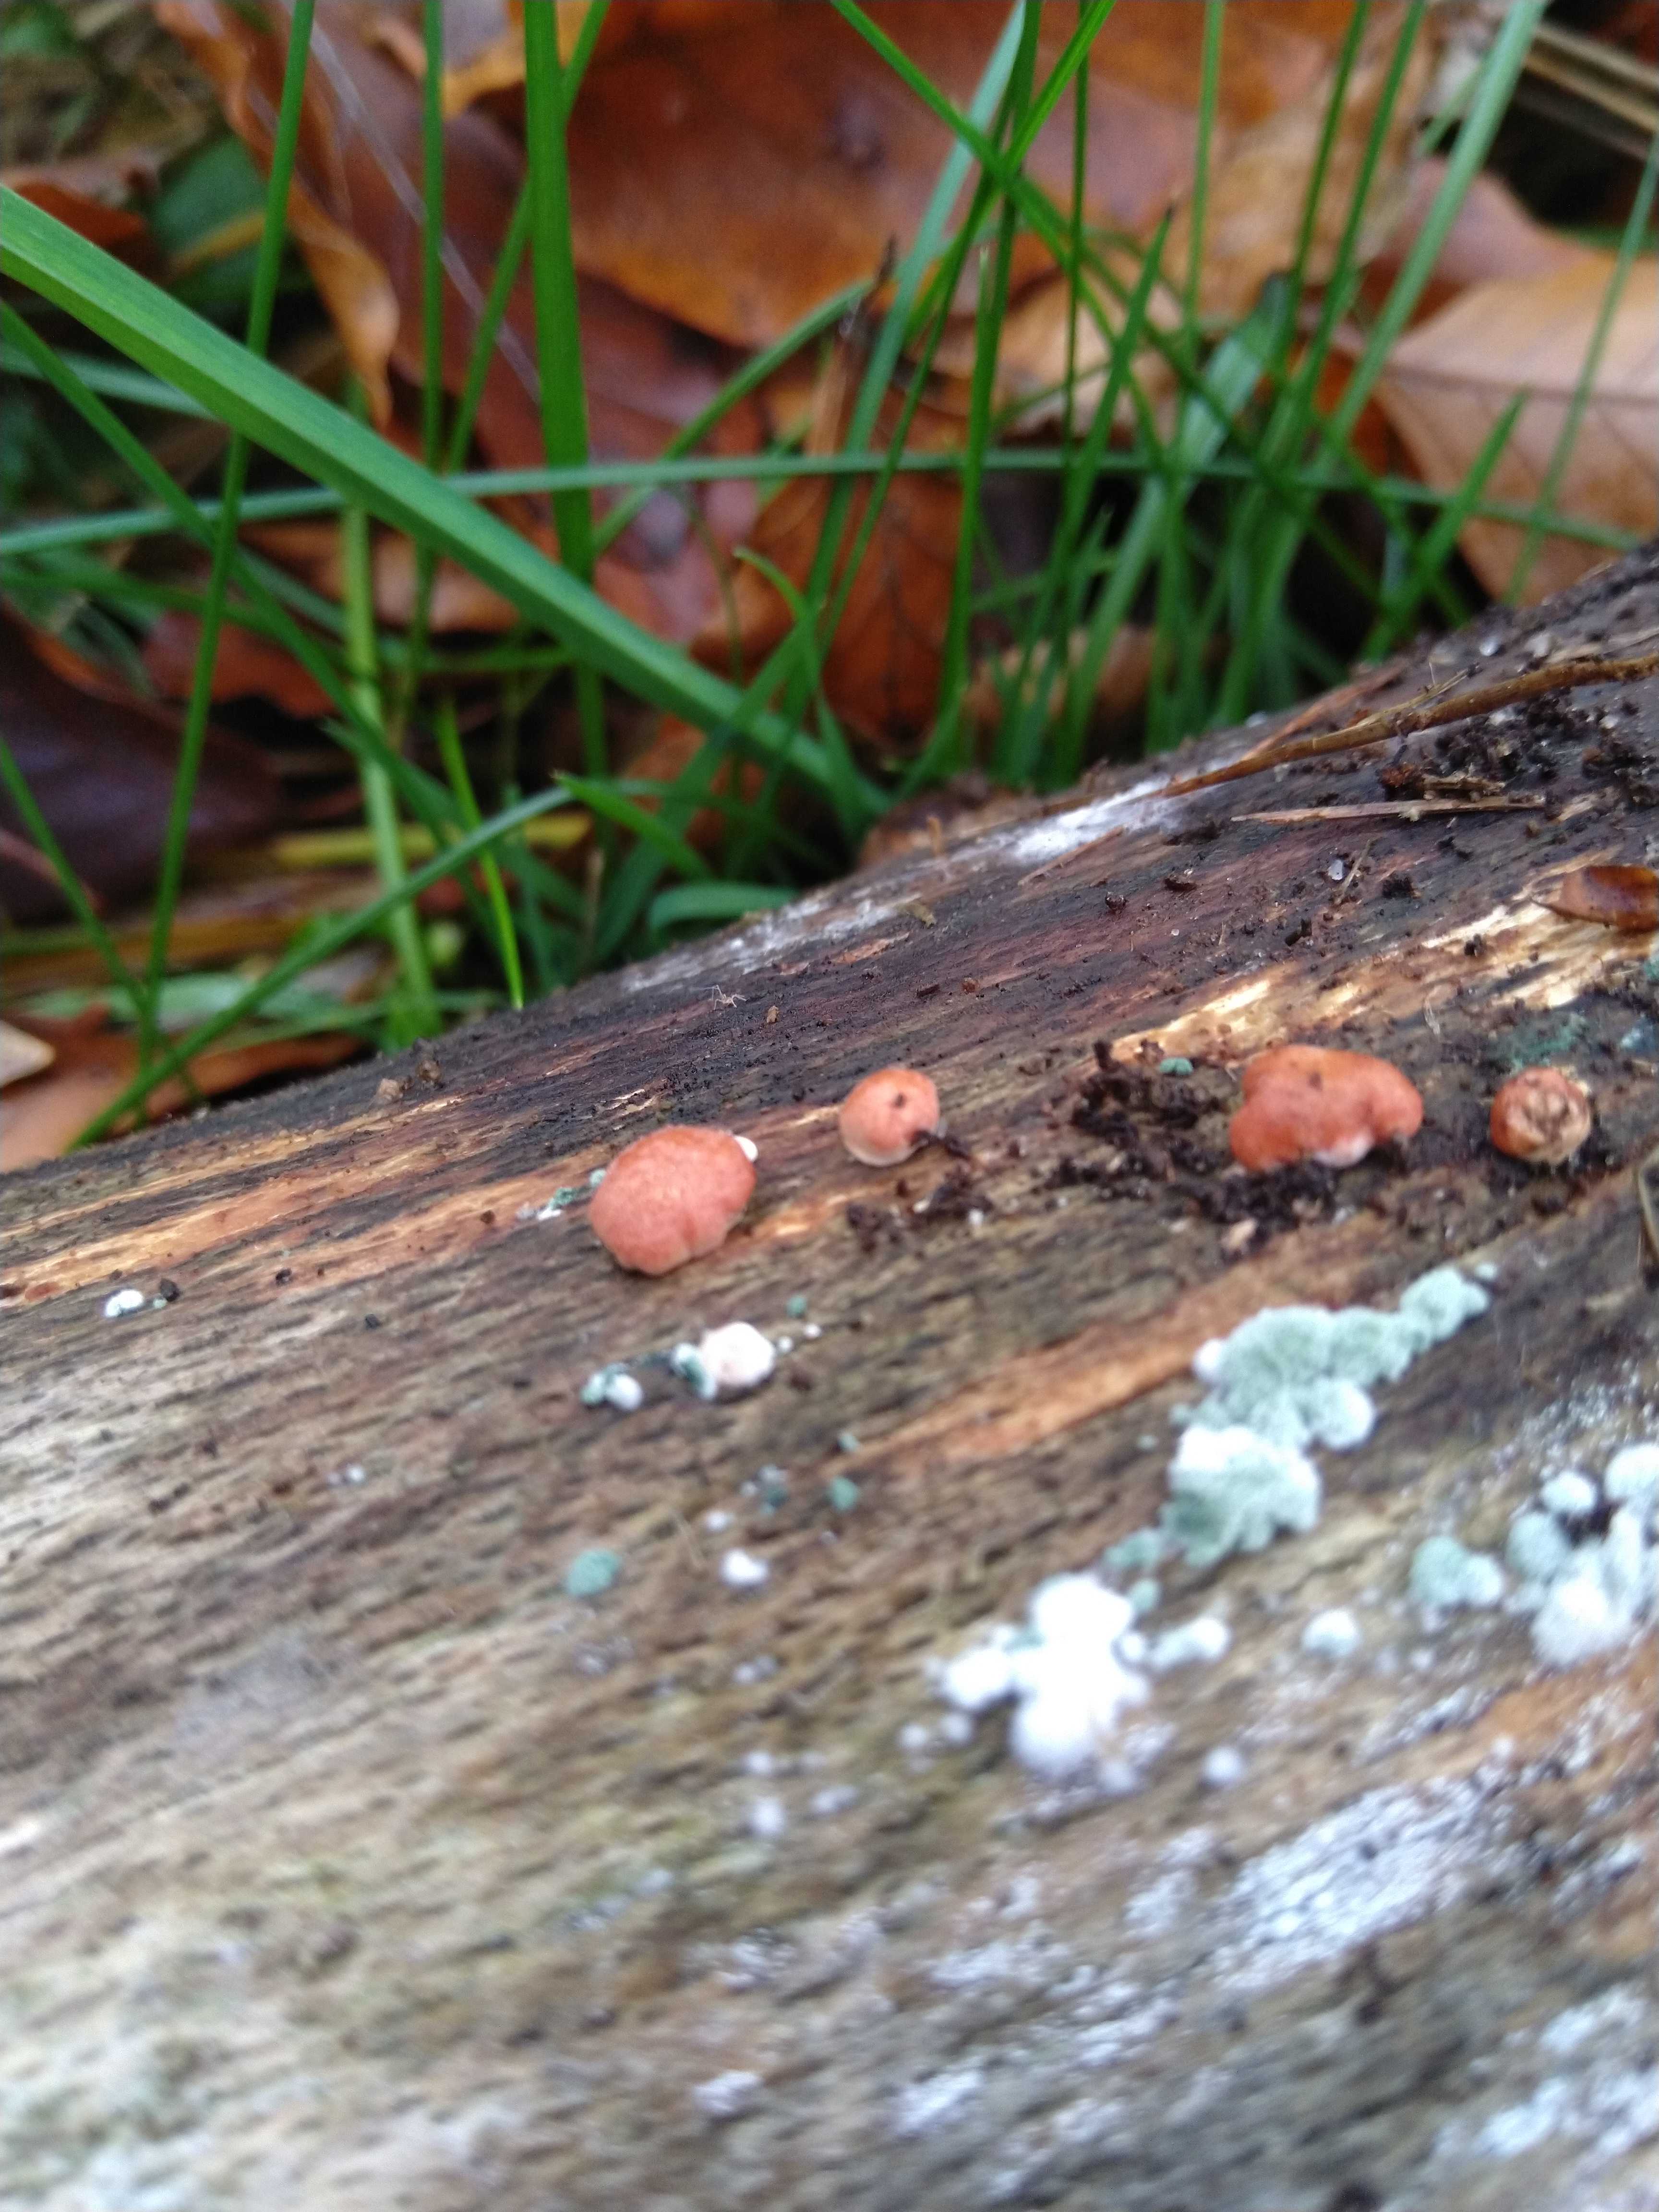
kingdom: Fungi
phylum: Ascomycota
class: Sordariomycetes
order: Hypocreales
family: Hypocreaceae
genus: Trichoderma
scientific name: Trichoderma europaeum
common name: rosabrun kødkerne
